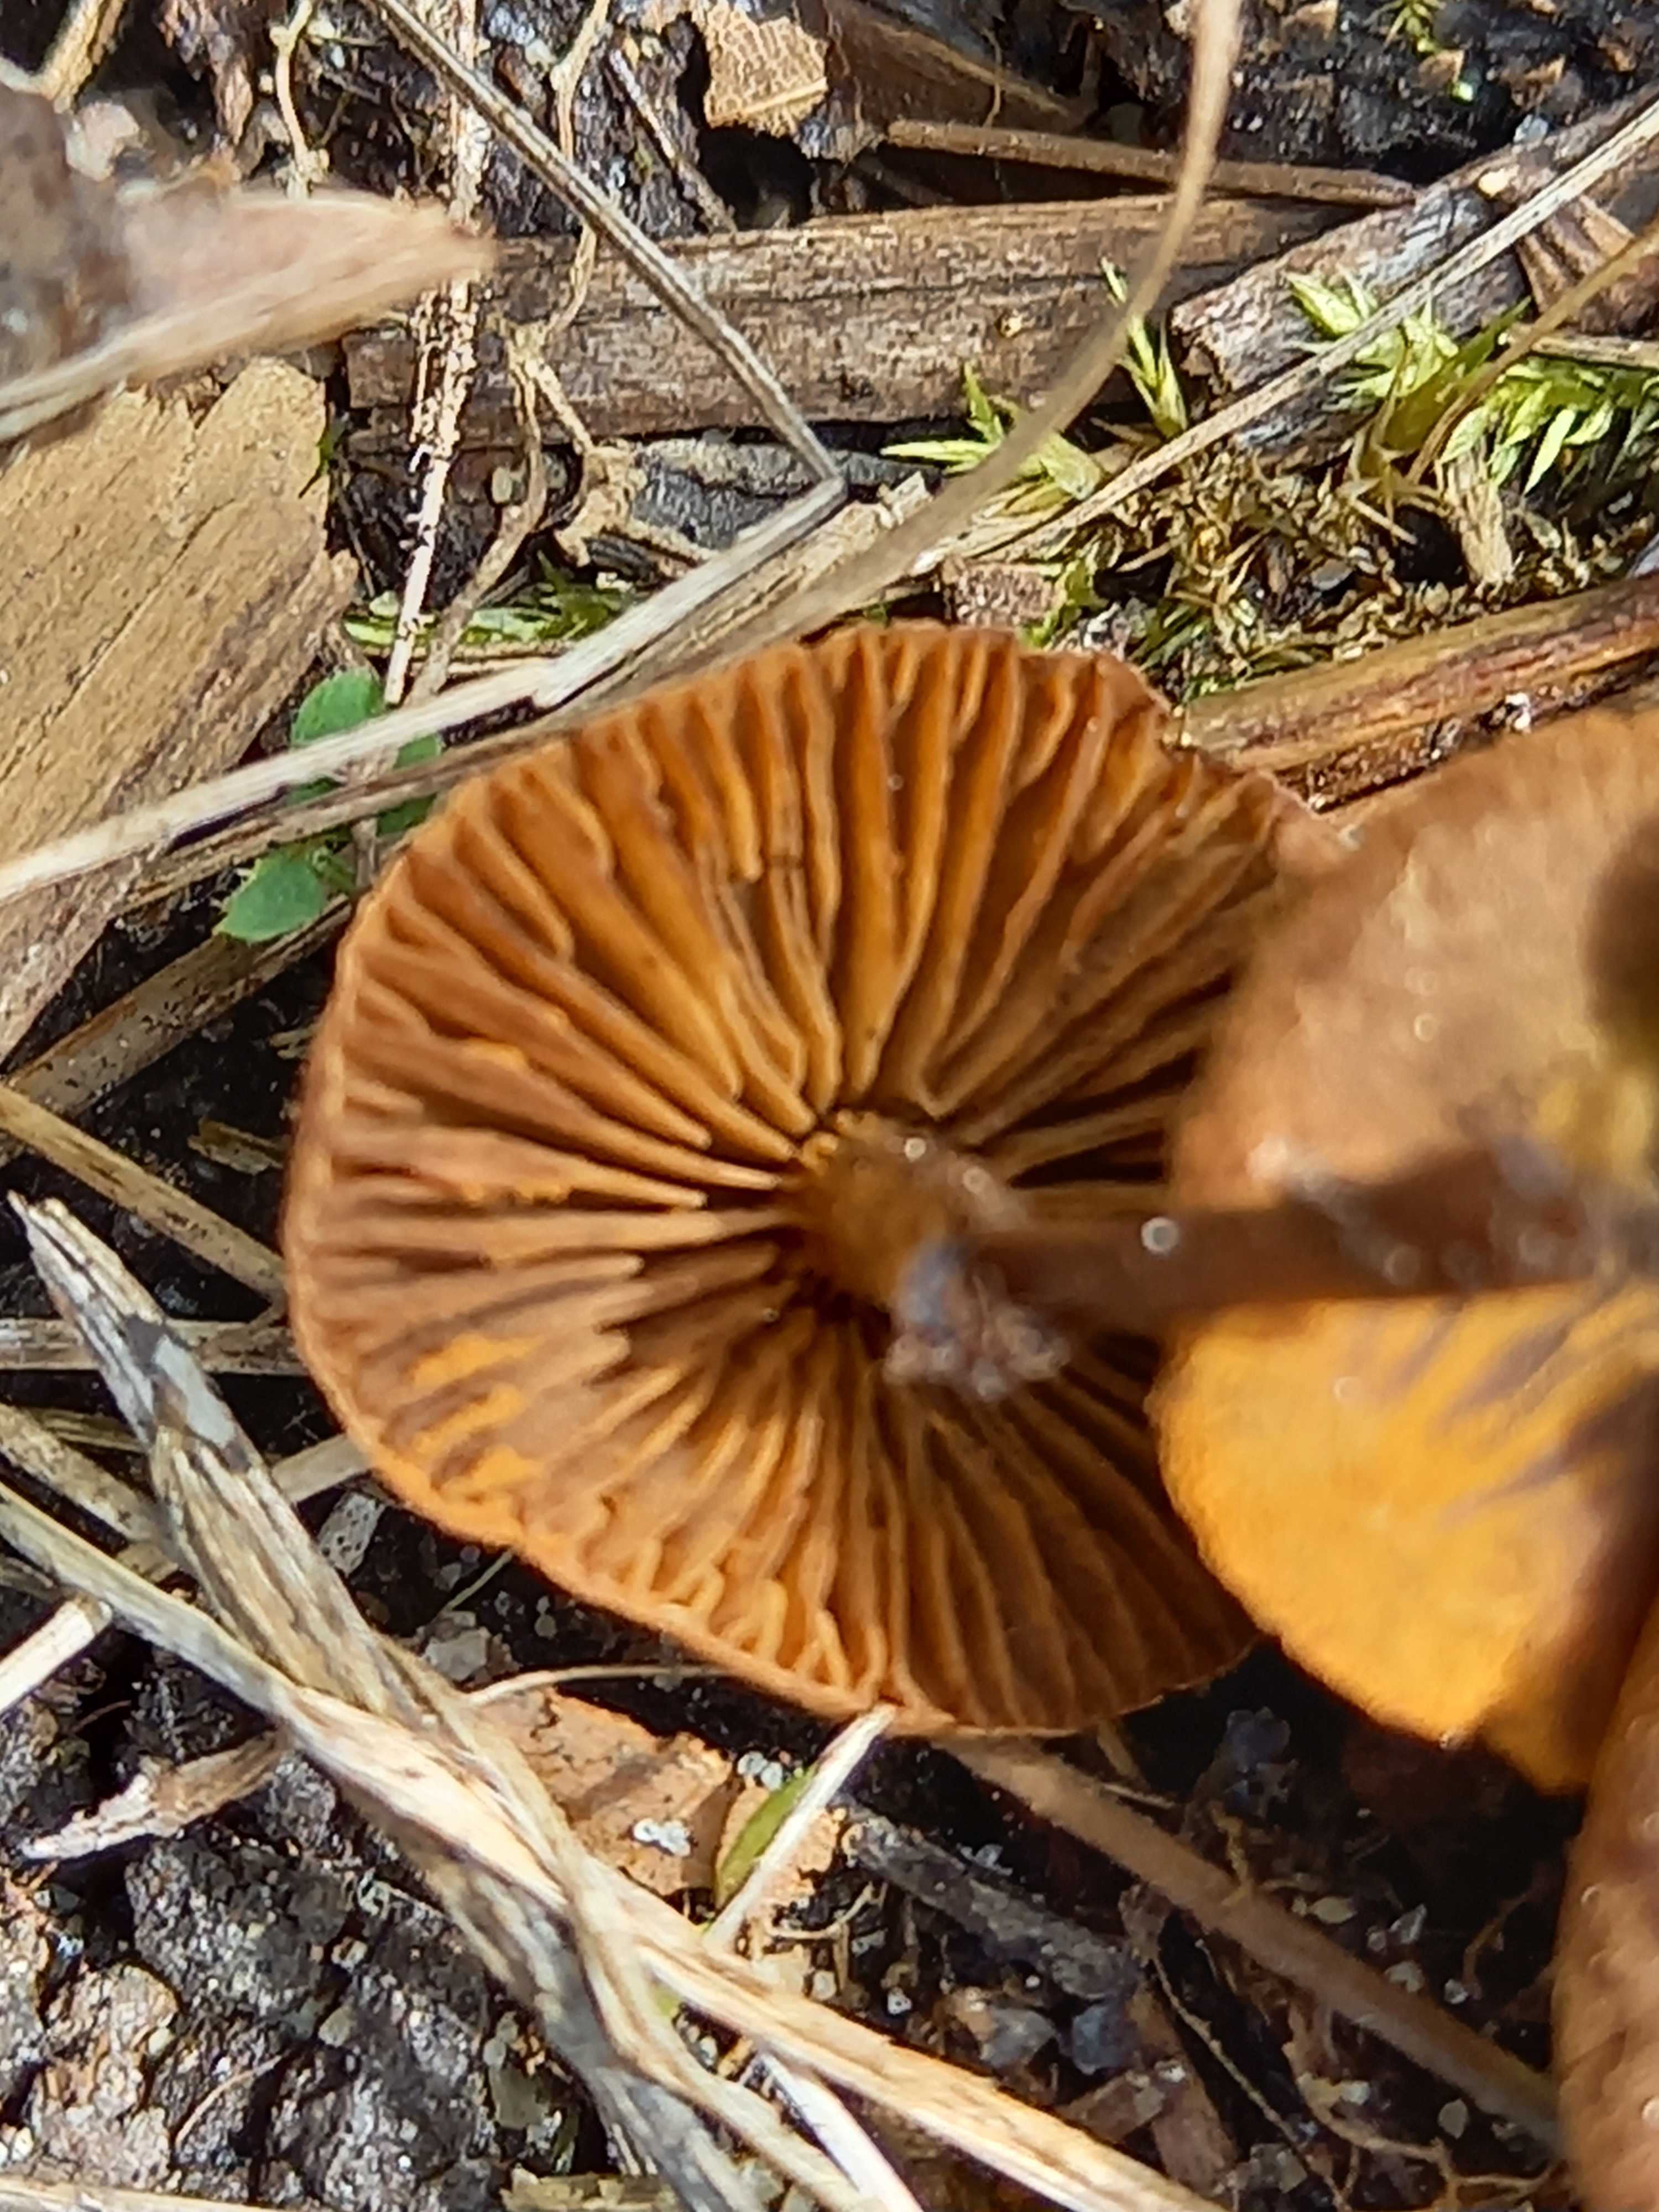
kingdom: Fungi
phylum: Basidiomycota
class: Agaricomycetes
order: Agaricales
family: Cortinariaceae
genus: Cortinarius
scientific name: Cortinarius
